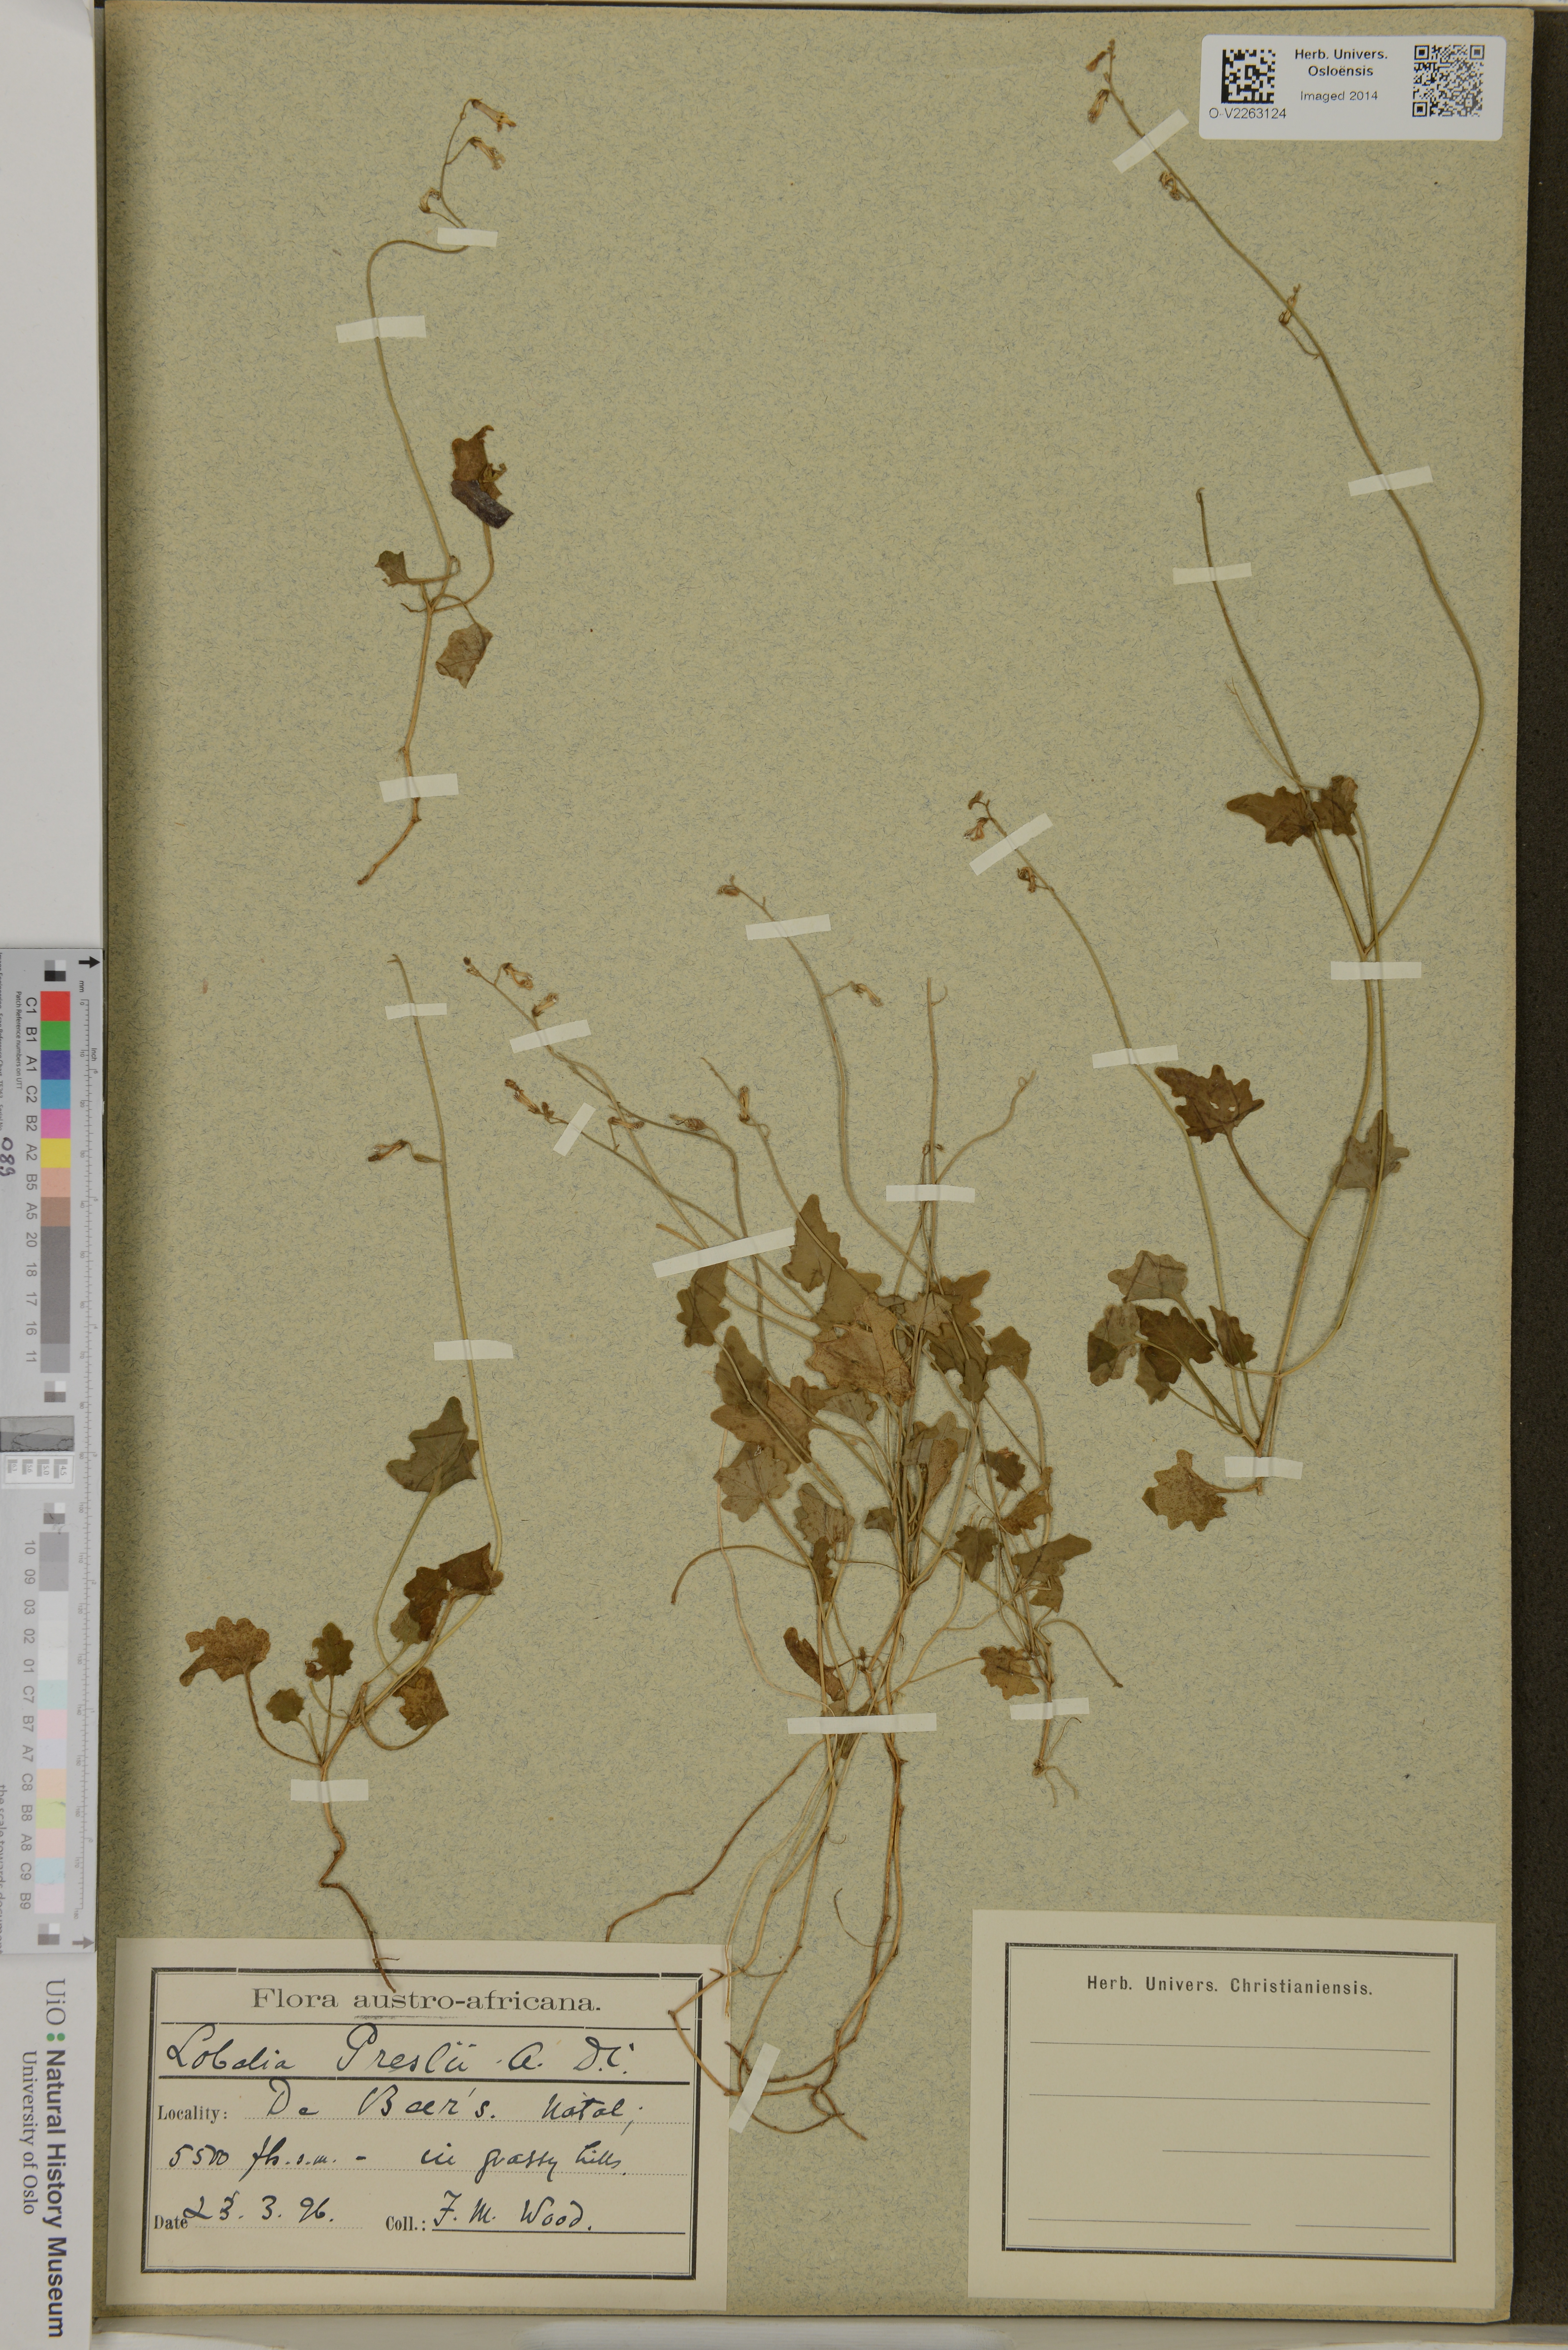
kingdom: Plantae
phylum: Tracheophyta
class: Magnoliopsida
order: Asterales
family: Campanulaceae
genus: Lobelia
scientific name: Lobelia preslii
